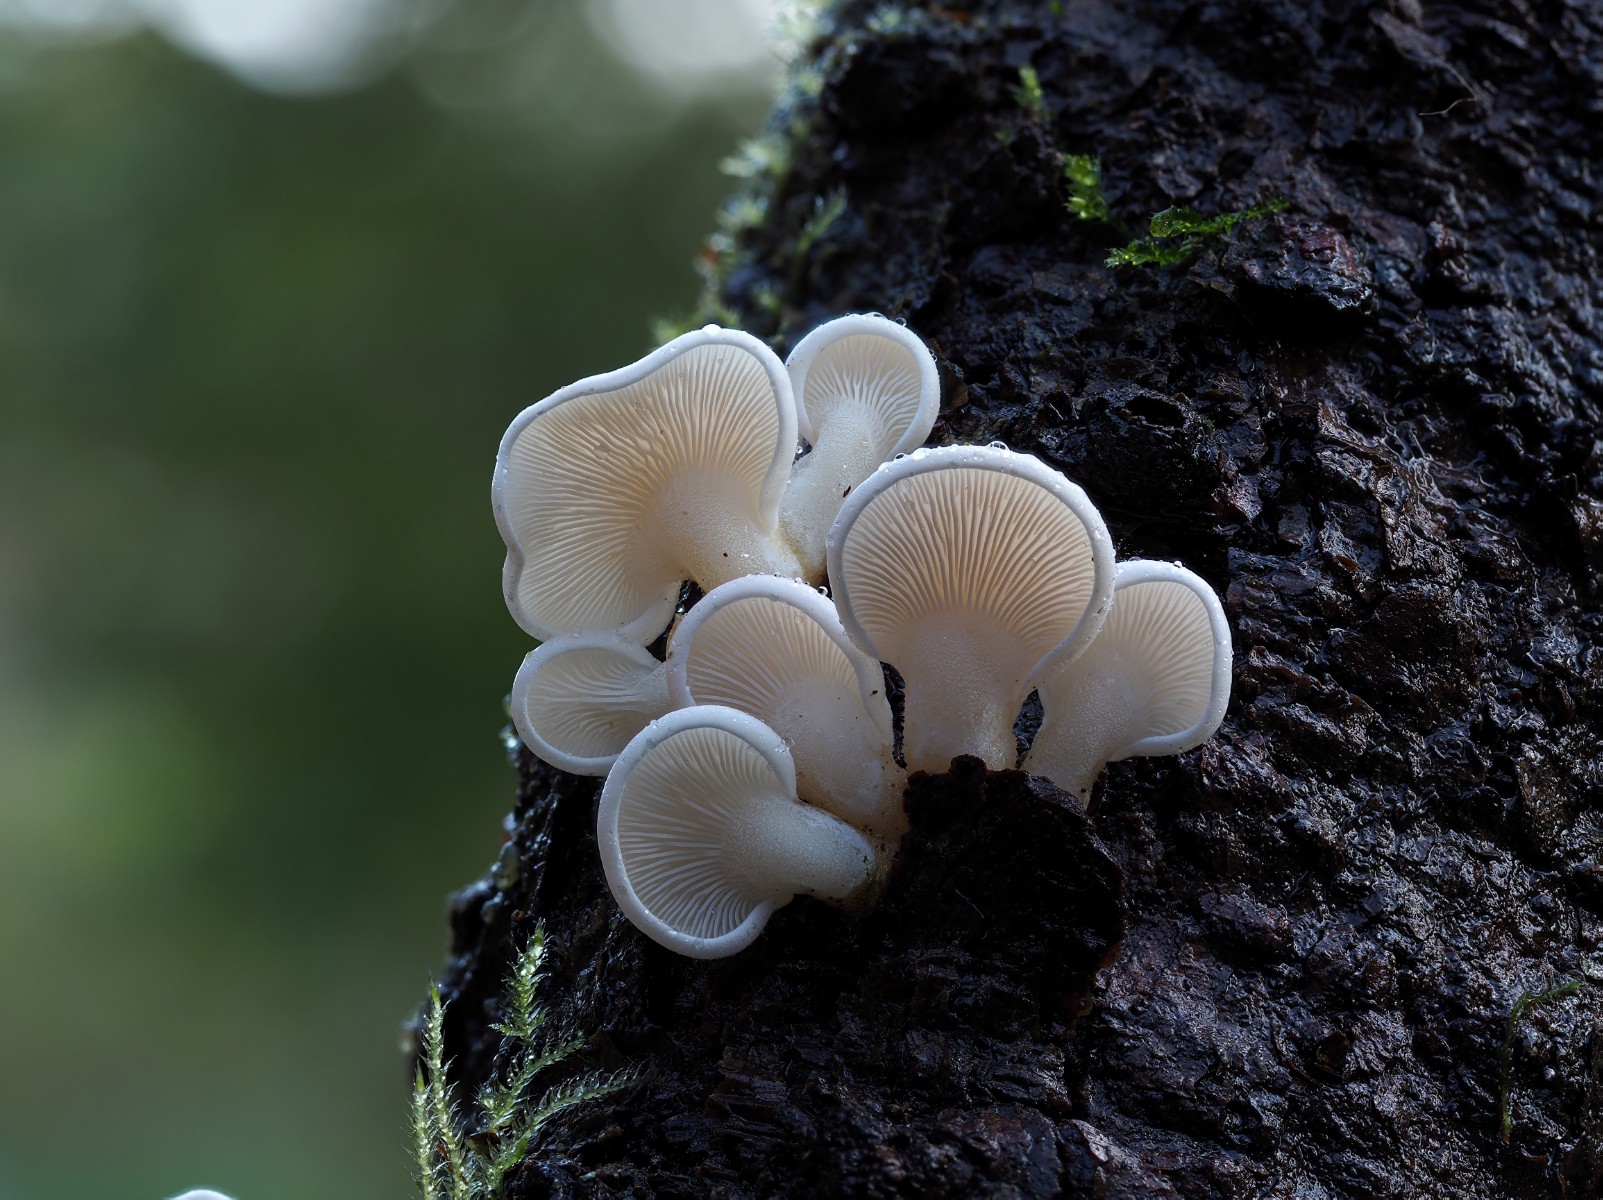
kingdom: Fungi
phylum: Basidiomycota
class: Agaricomycetes
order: Agaricales
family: Mycenaceae
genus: Panellus
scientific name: Panellus mitis
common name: mild epaulethat
